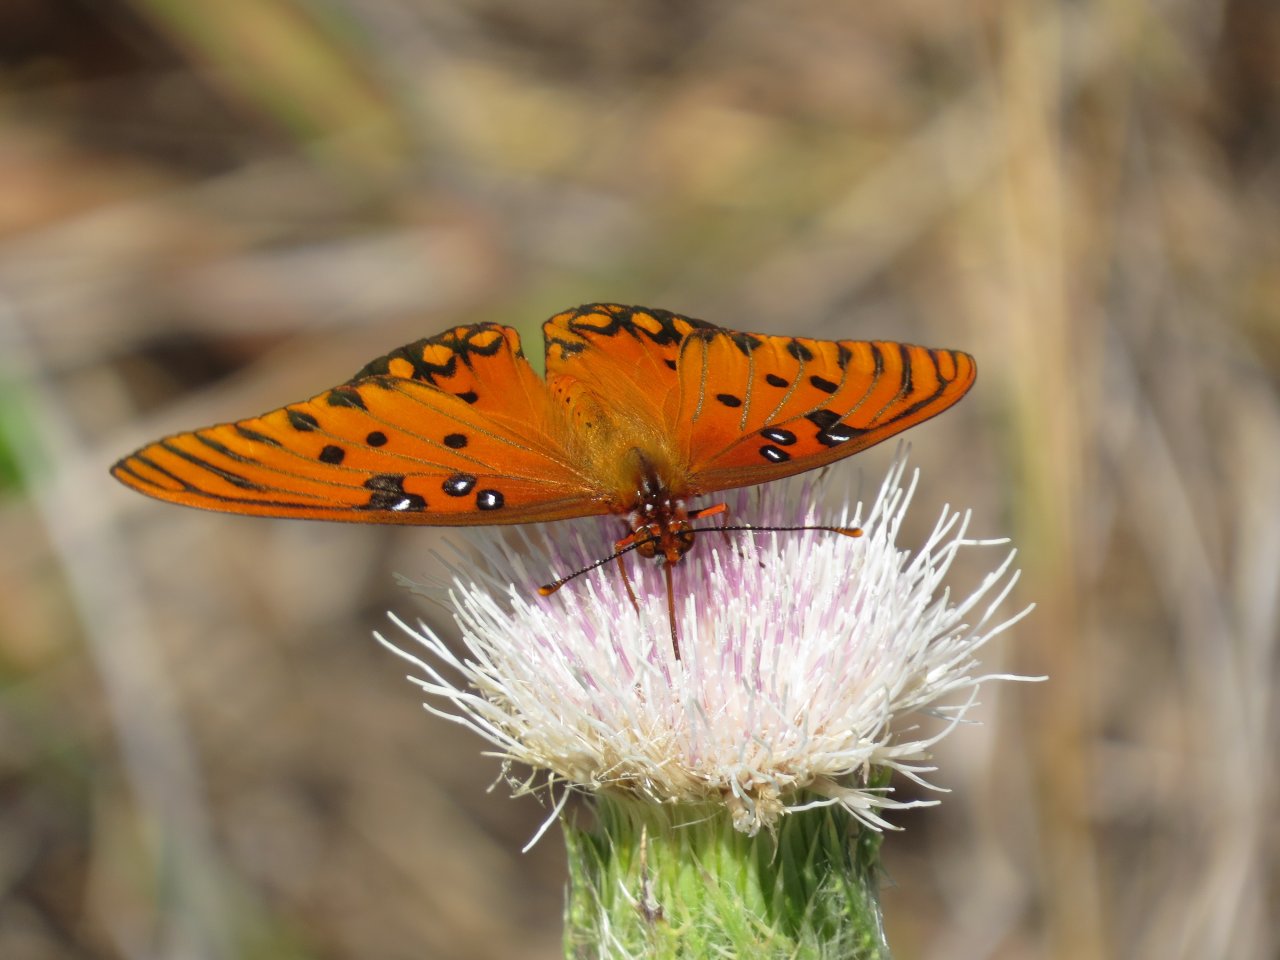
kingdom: Animalia
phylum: Arthropoda
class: Insecta
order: Lepidoptera
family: Nymphalidae
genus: Dione
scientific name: Dione vanillae
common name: Gulf Fritillary
